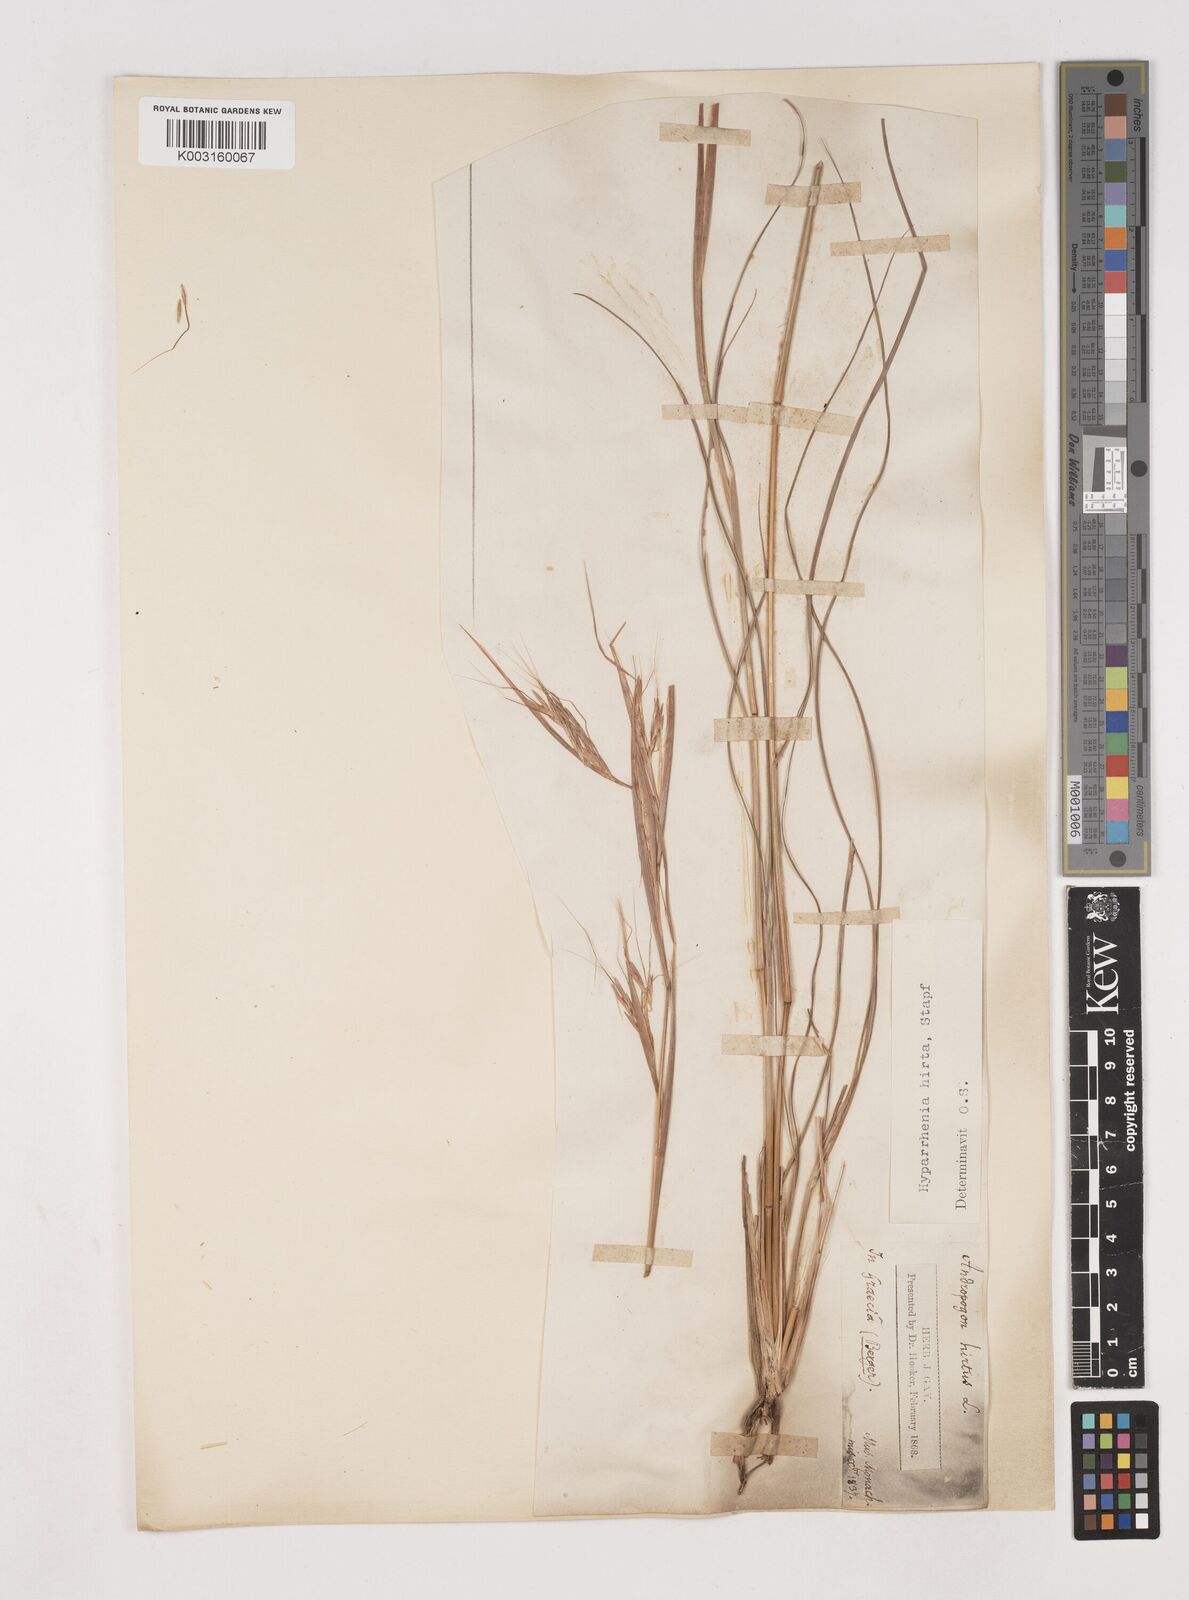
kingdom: Plantae
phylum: Tracheophyta
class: Liliopsida
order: Poales
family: Poaceae
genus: Hyparrhenia
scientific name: Hyparrhenia hirta
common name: Thatching grass
